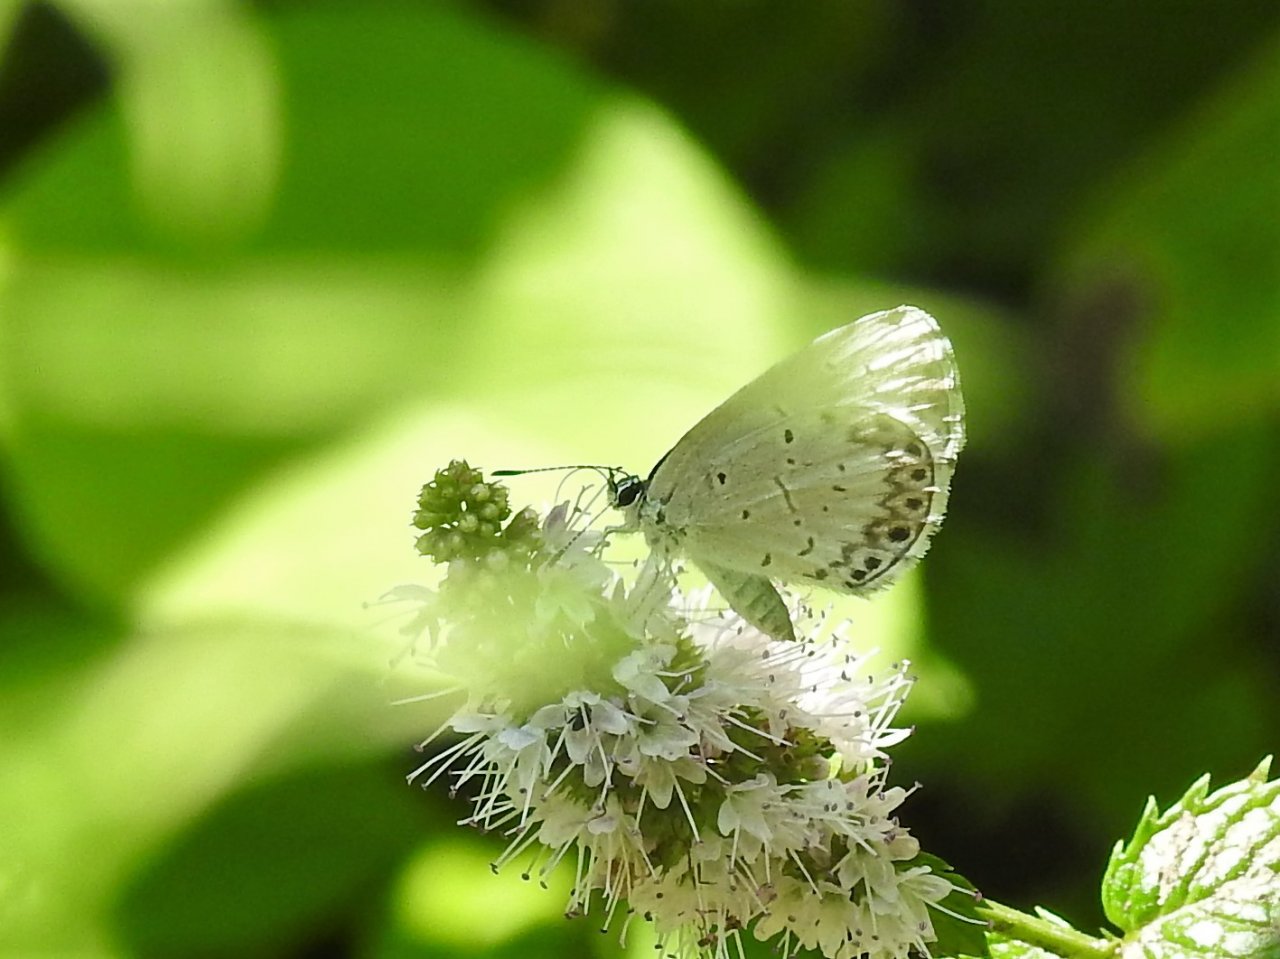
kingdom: Animalia
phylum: Arthropoda
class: Insecta
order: Lepidoptera
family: Lycaenidae
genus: Celastrina
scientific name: Celastrina
